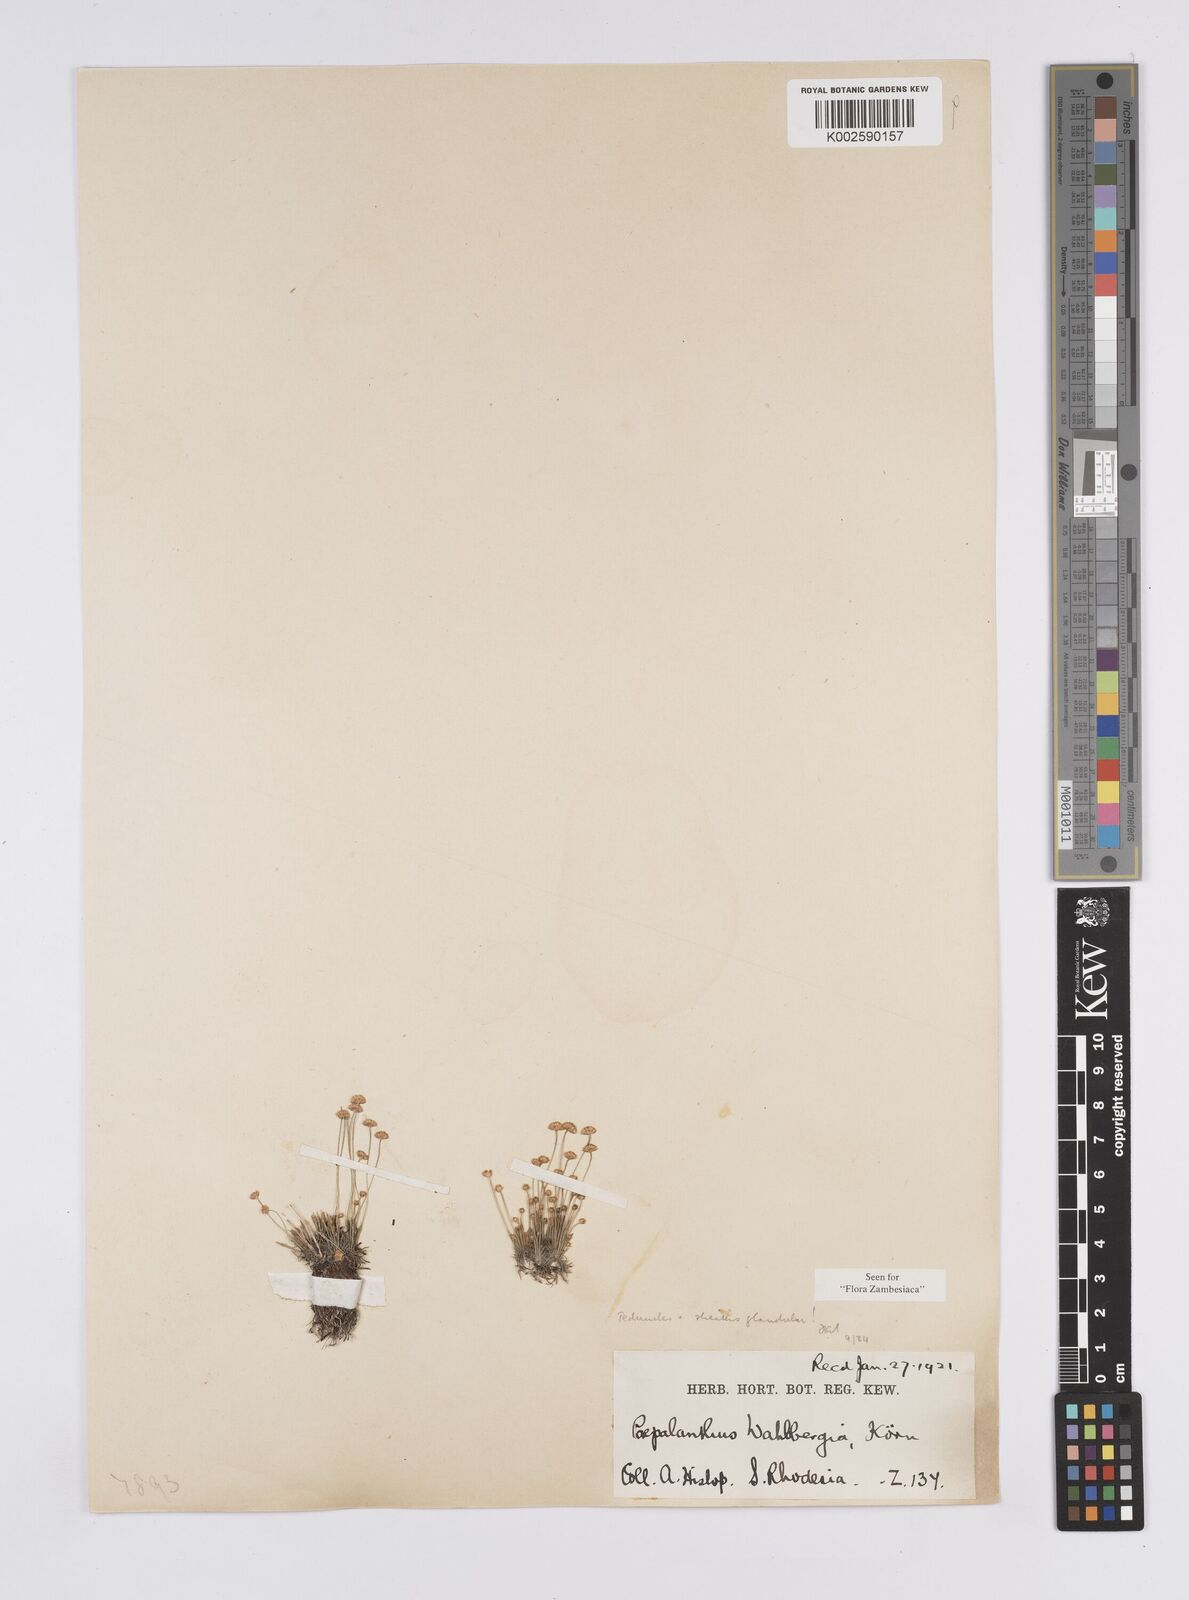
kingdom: Plantae
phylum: Tracheophyta
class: Liliopsida
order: Poales
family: Eriocaulaceae
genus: Syngonanthus
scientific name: Syngonanthus wahlbergii
